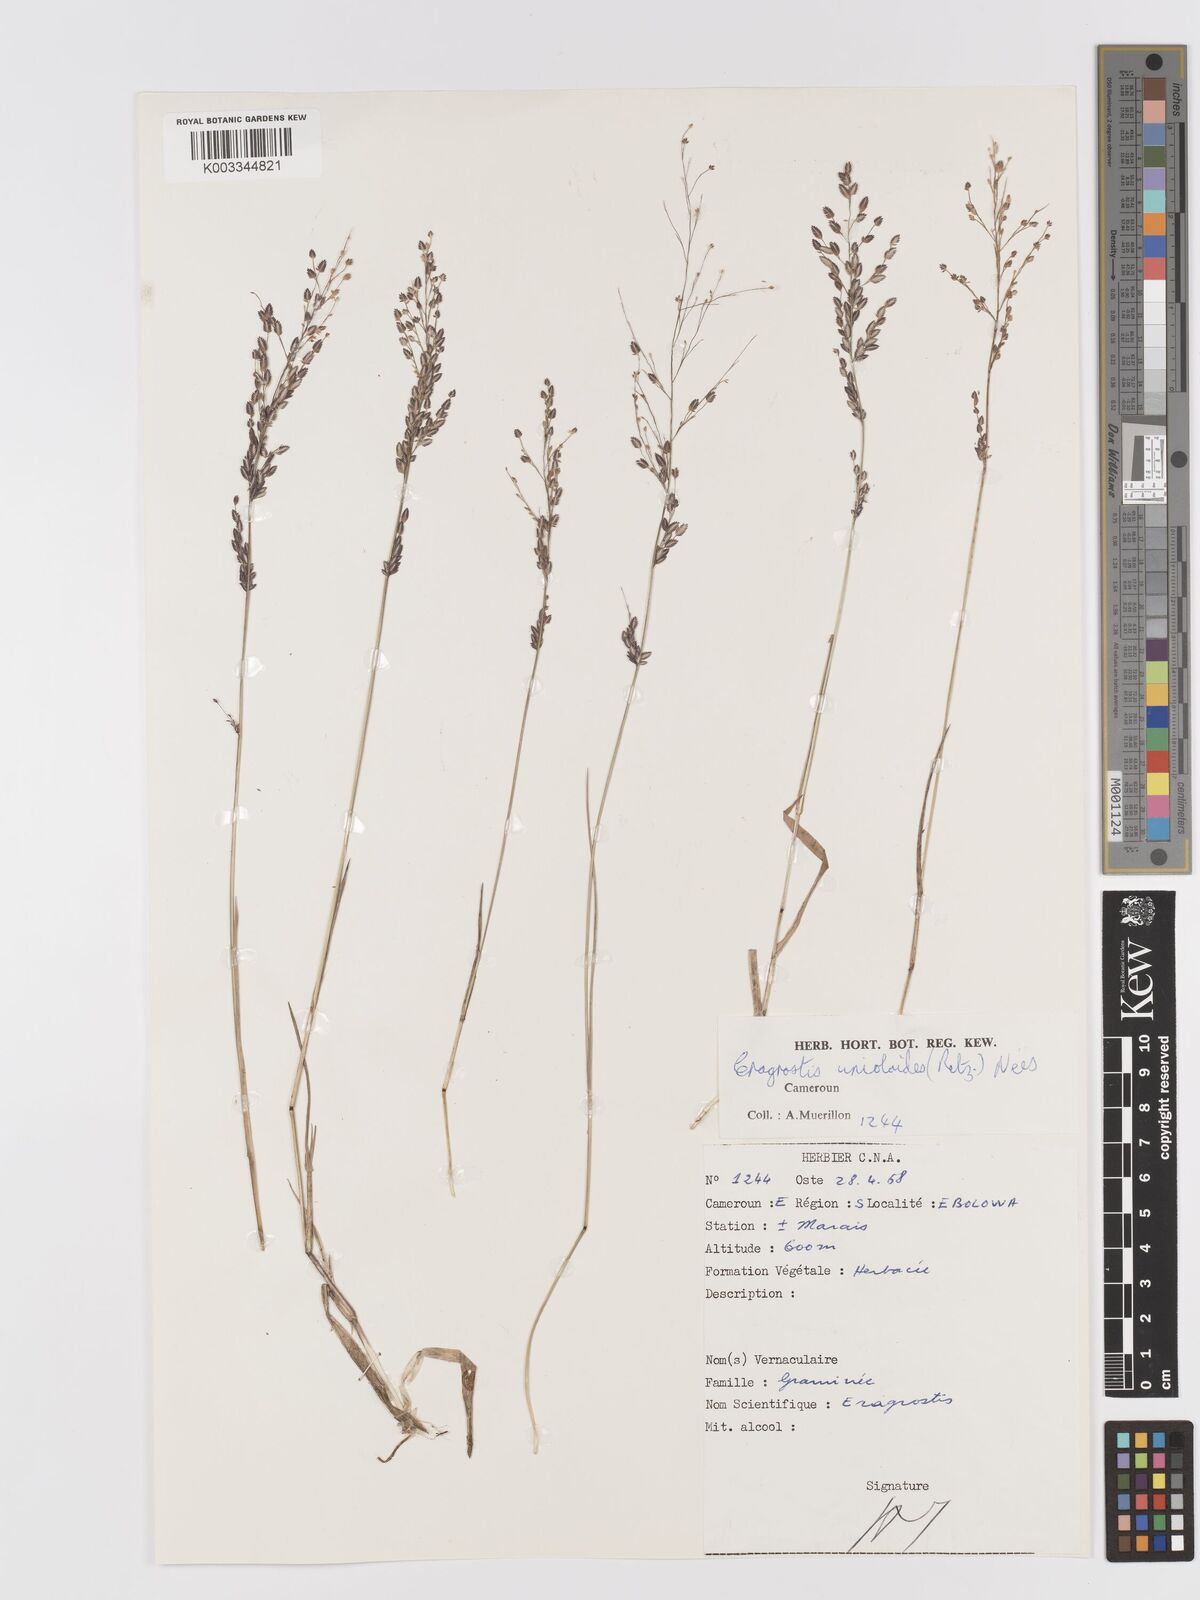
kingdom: Plantae
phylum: Tracheophyta
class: Liliopsida
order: Poales
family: Poaceae
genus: Eragrostis
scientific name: Eragrostis unioloides
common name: Chinese lovegrass
